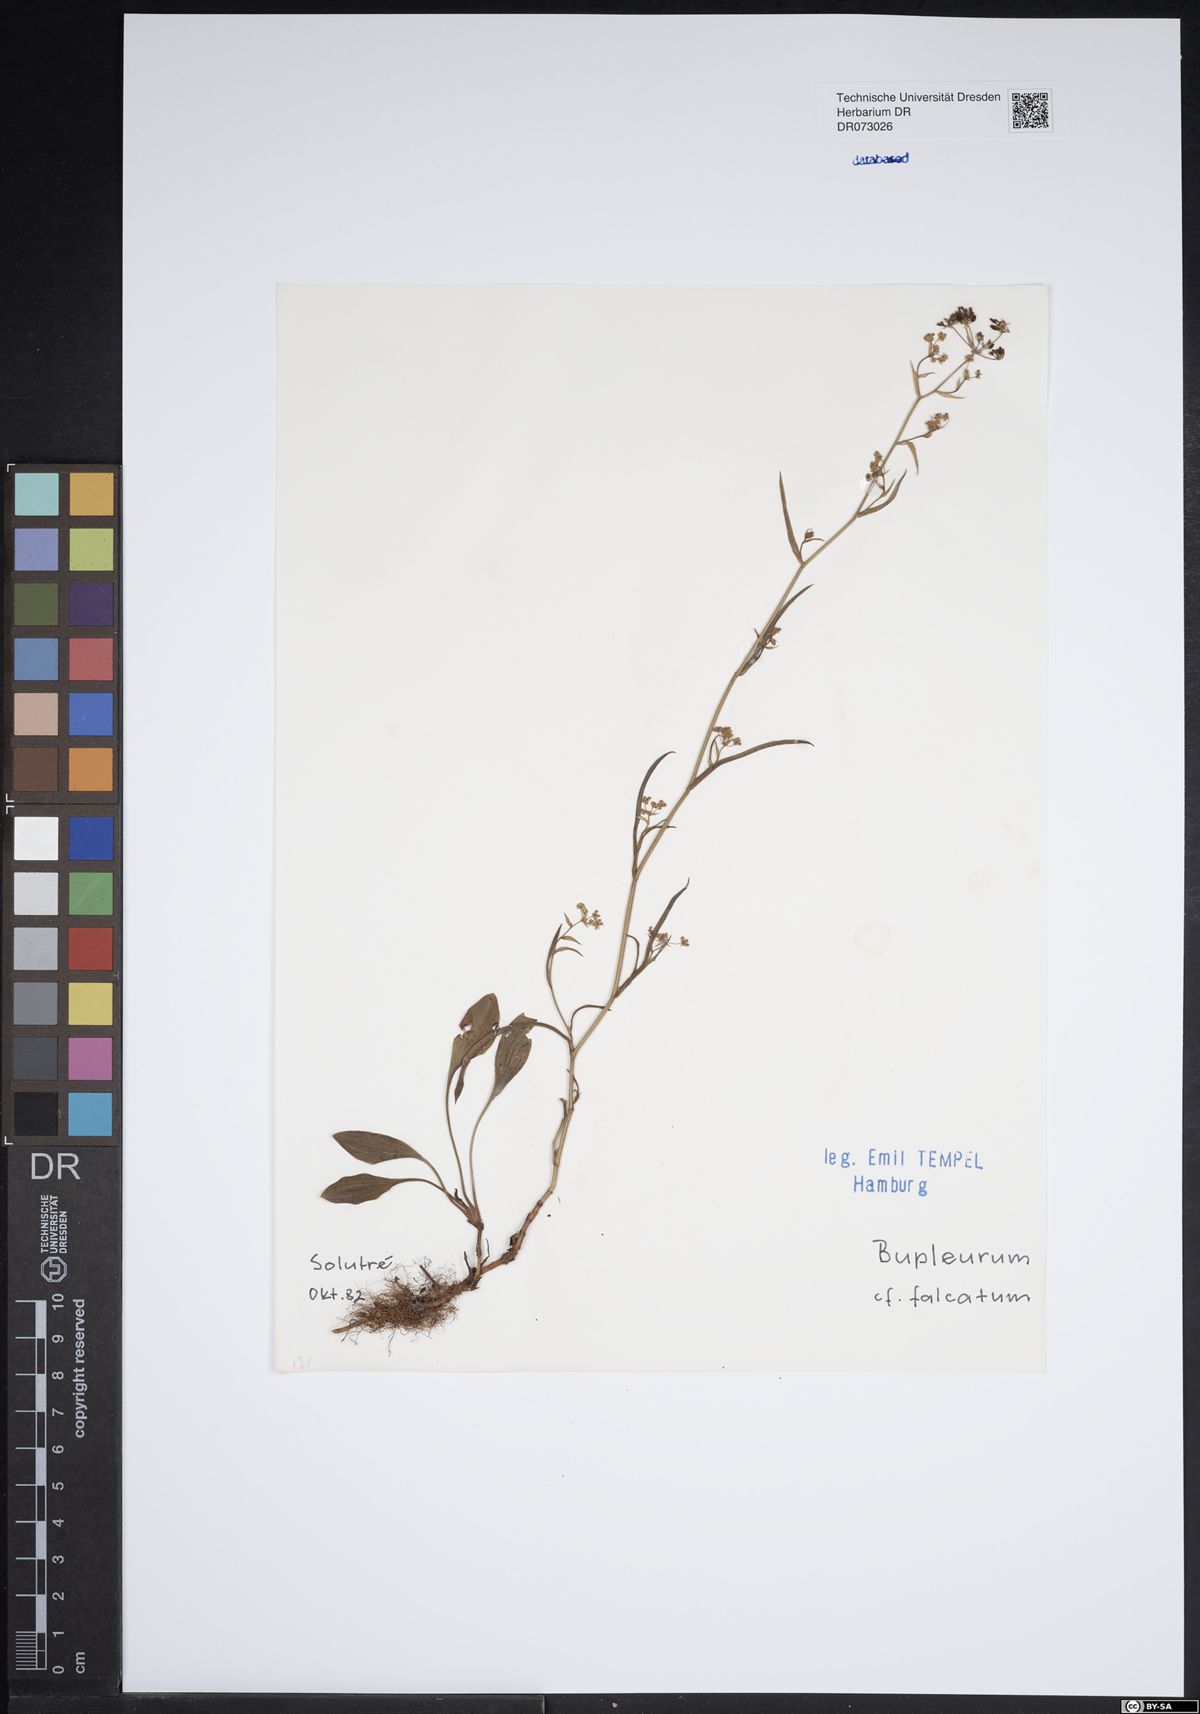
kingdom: Plantae
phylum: Tracheophyta
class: Magnoliopsida
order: Apiales
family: Apiaceae
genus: Scandix
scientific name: Scandix pecten-veneris
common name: Shepherd's-needle
